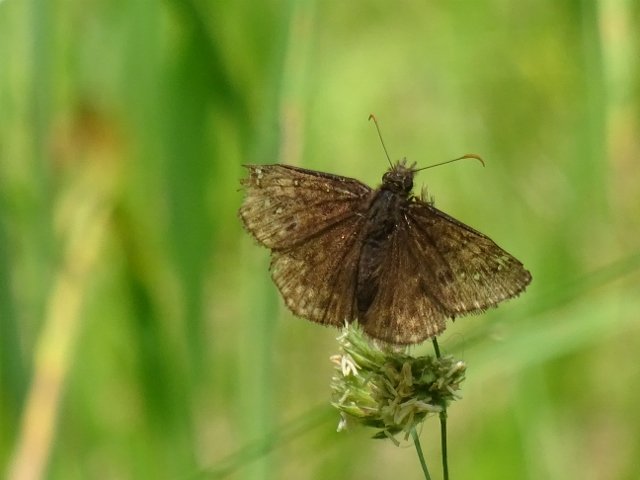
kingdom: Animalia
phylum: Arthropoda
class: Insecta
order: Lepidoptera
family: Hesperiidae
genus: Gesta
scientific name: Gesta
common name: Juvenal's Duskywing
